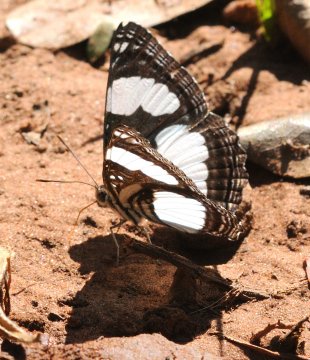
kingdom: Animalia
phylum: Arthropoda
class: Insecta
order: Lepidoptera
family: Nymphalidae
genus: Neptis
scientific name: Neptis serena
